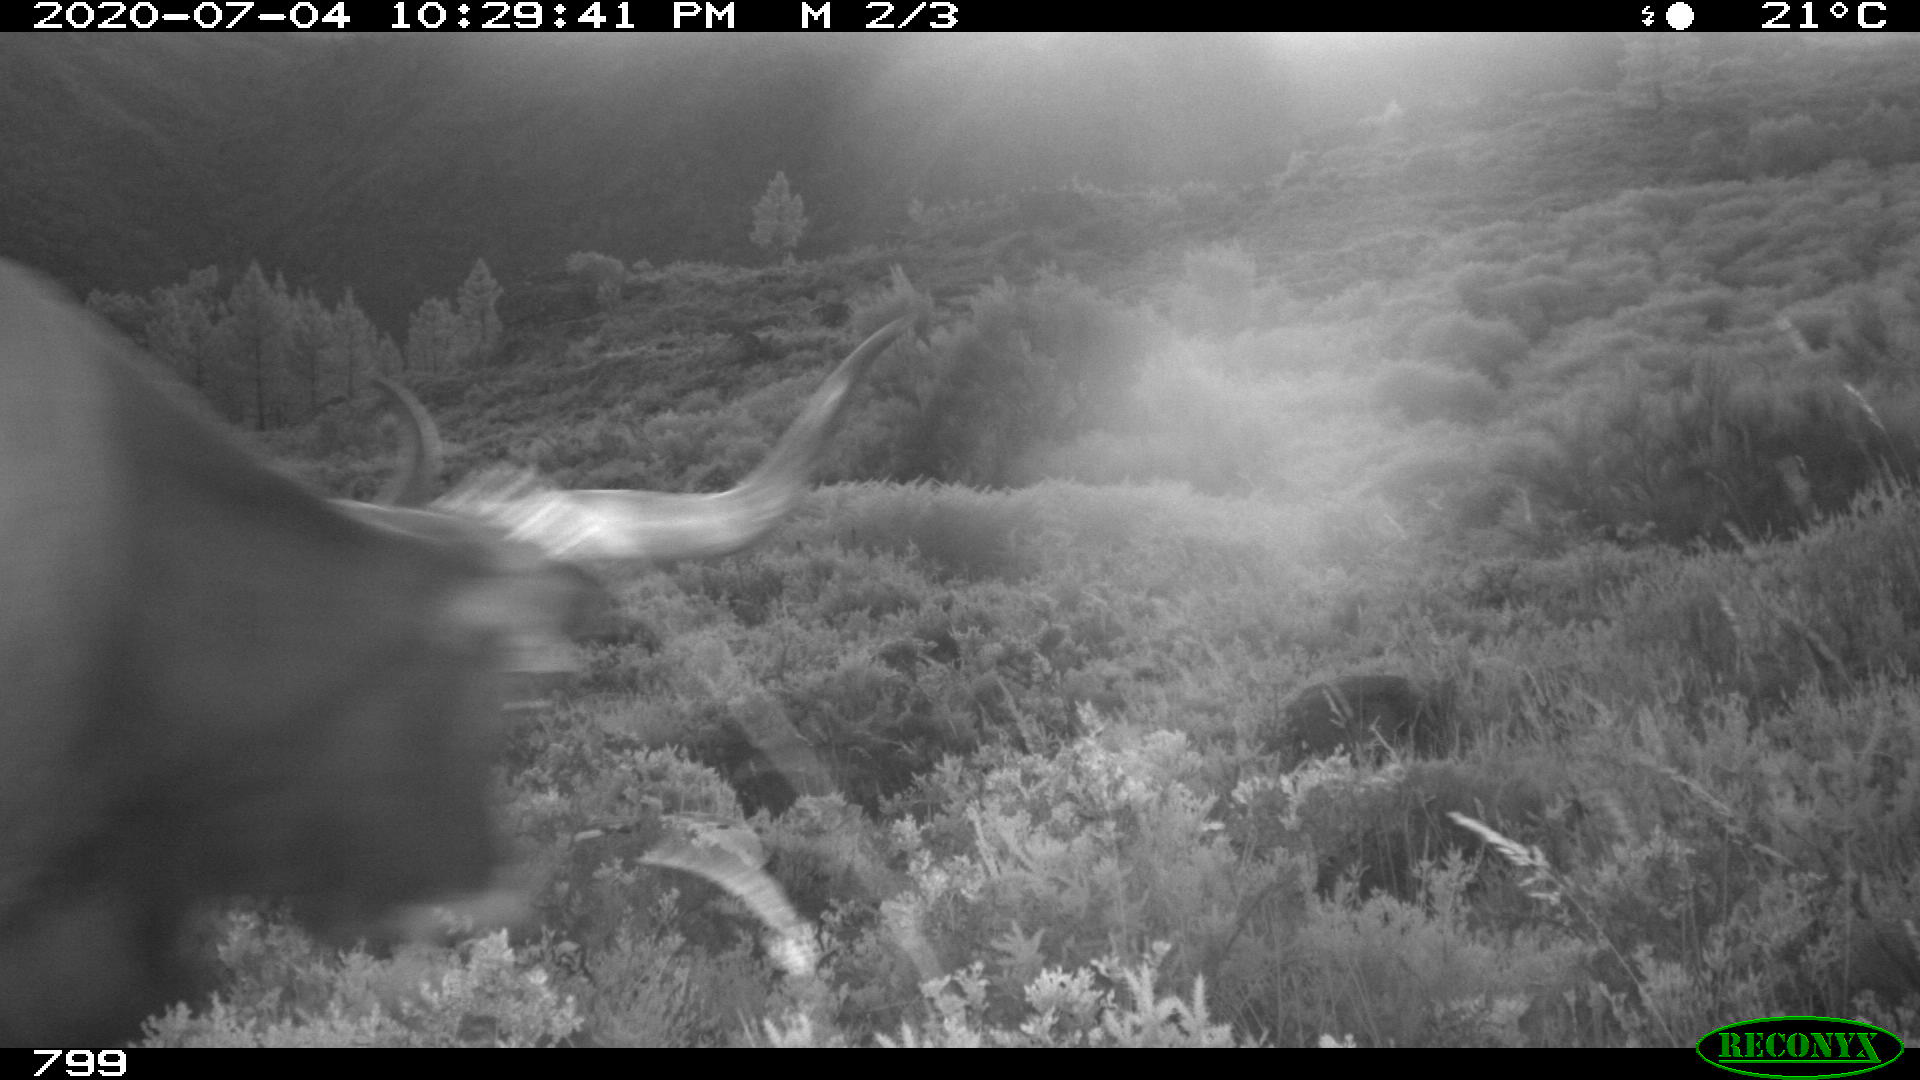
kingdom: Animalia
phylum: Chordata
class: Mammalia
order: Artiodactyla
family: Bovidae
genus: Bos
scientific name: Bos taurus
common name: Domesticated cattle
